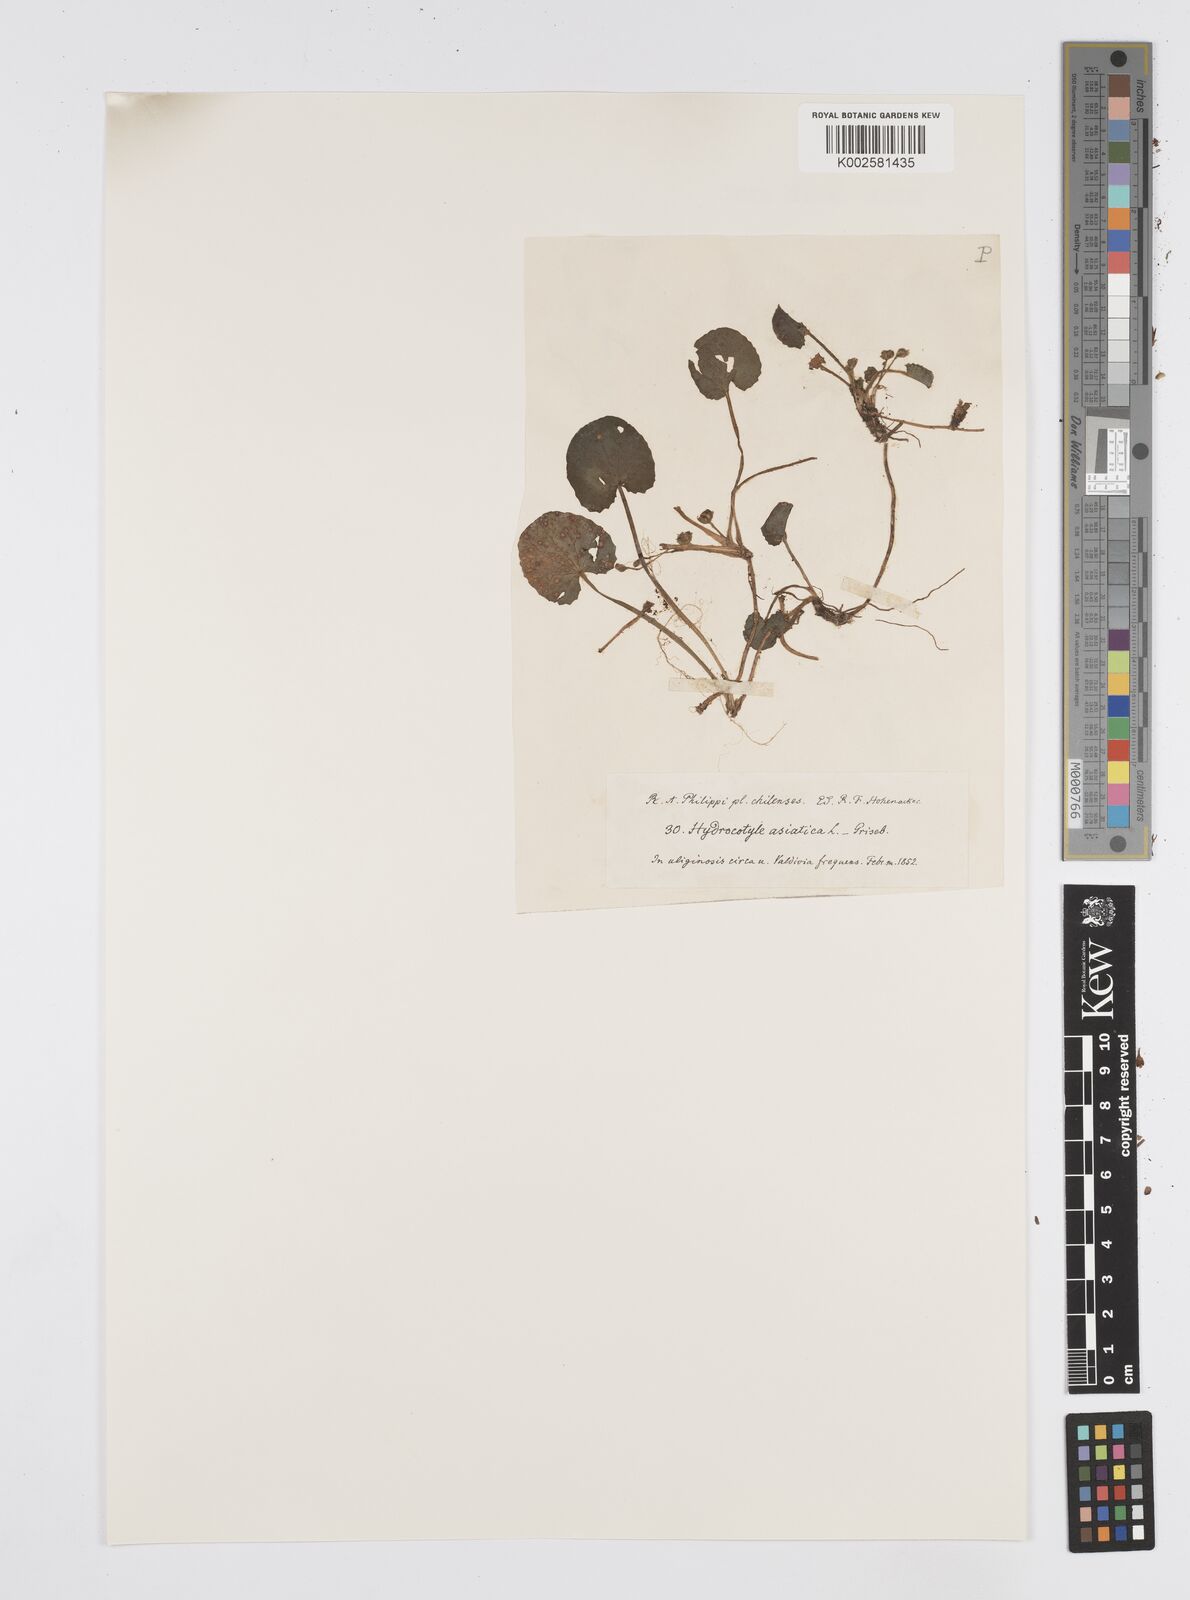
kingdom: Plantae
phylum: Tracheophyta
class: Magnoliopsida
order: Apiales
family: Apiaceae
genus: Centella
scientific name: Centella erecta
